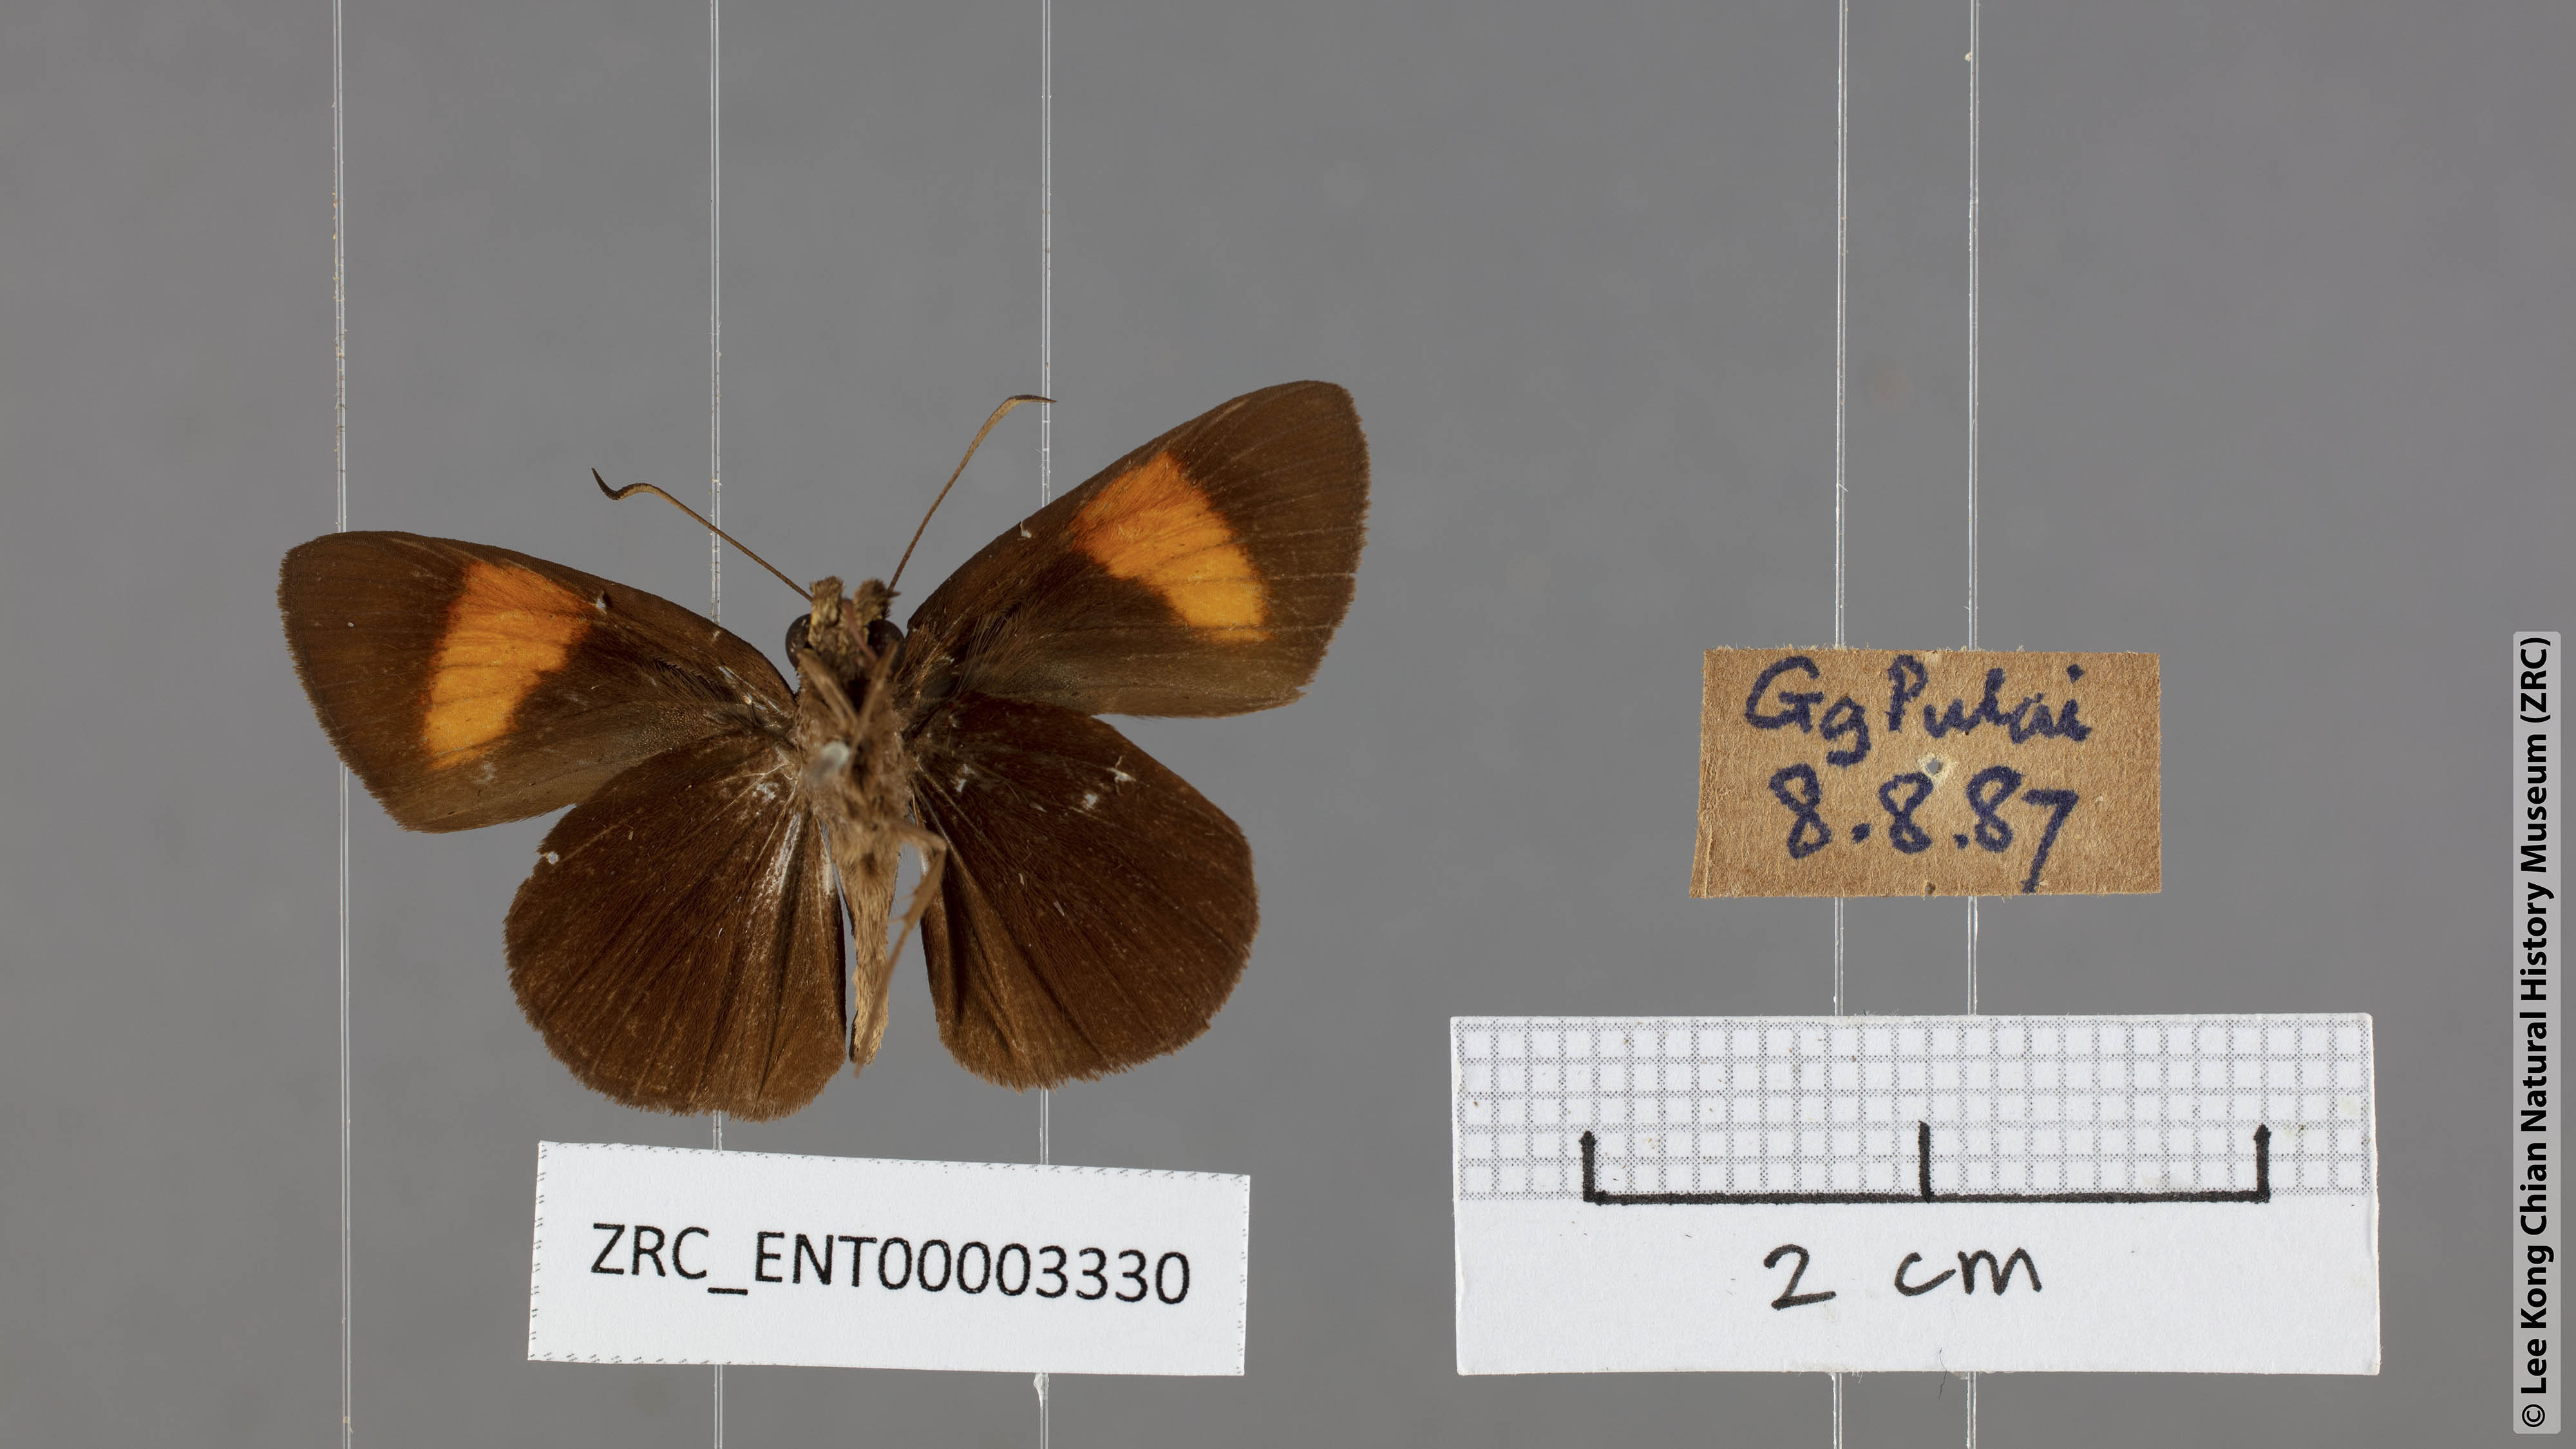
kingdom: Animalia
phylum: Arthropoda
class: Insecta
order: Lepidoptera
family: Hesperiidae
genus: Koruthaialos
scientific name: Koruthaialos rubecula
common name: Narrow-banded velvet bob
